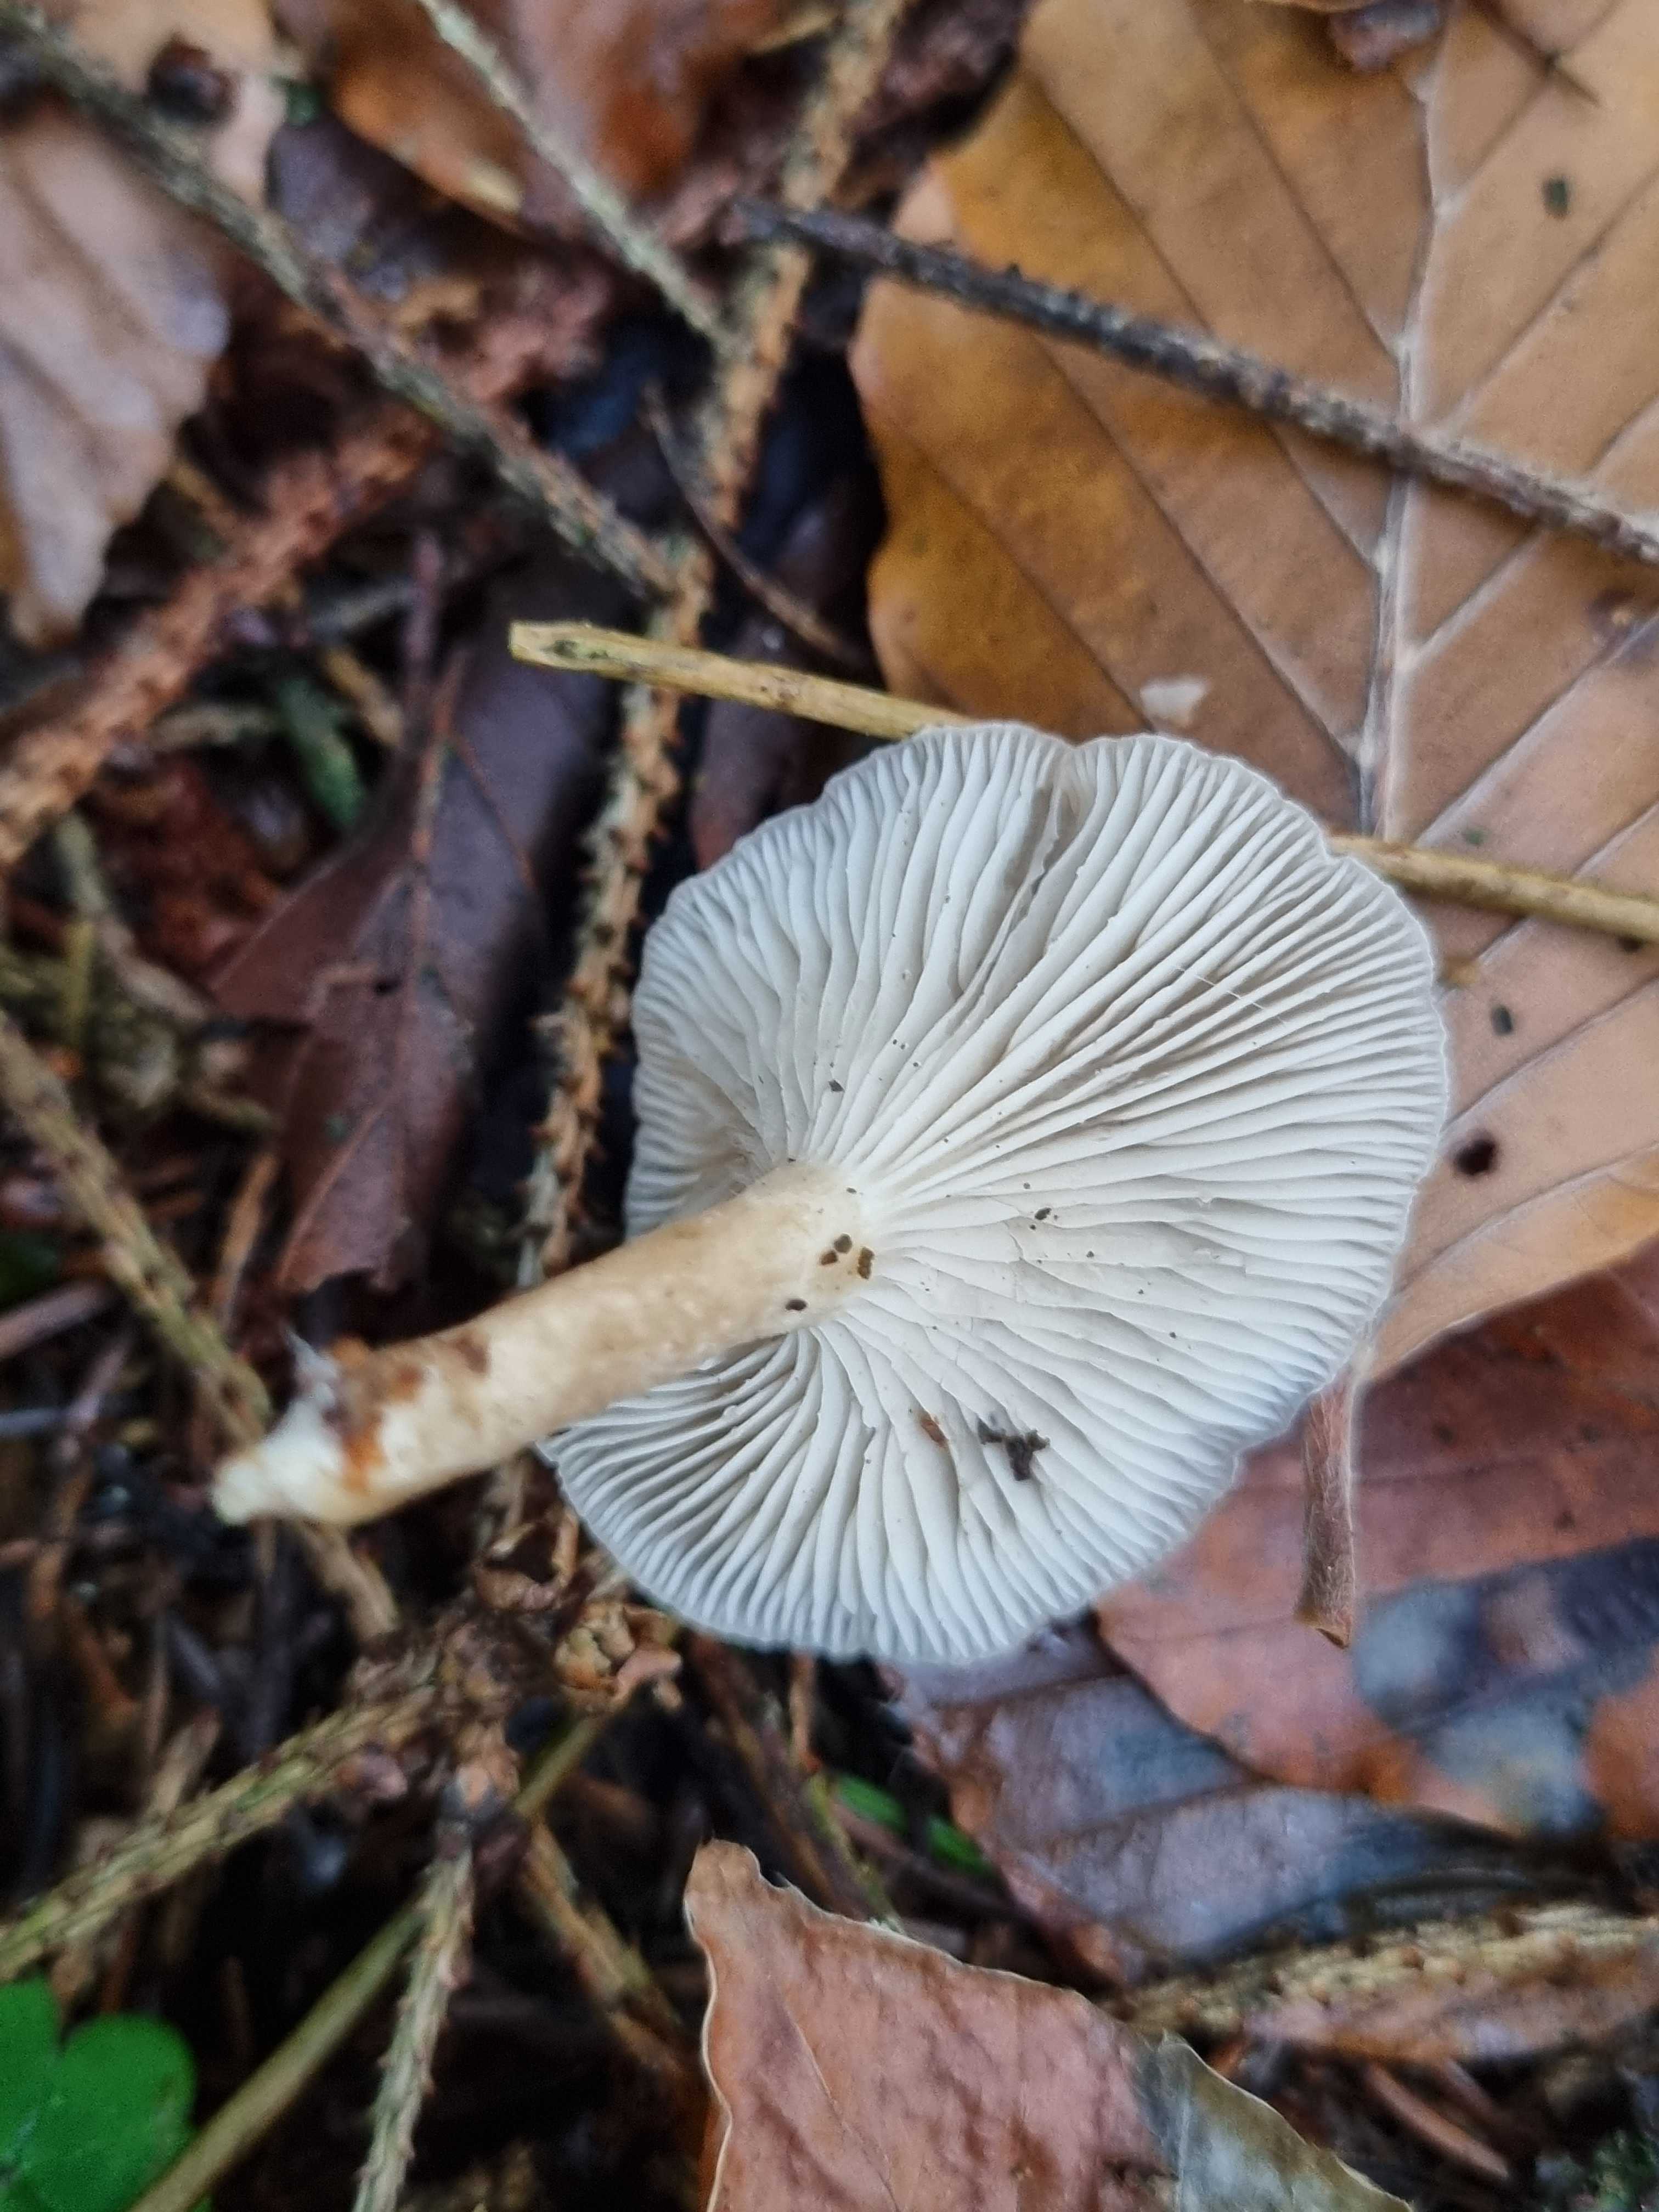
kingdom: Fungi
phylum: Basidiomycota
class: Agaricomycetes
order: Agaricales
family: Tricholomataceae
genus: Clitocybe
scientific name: Clitocybe
